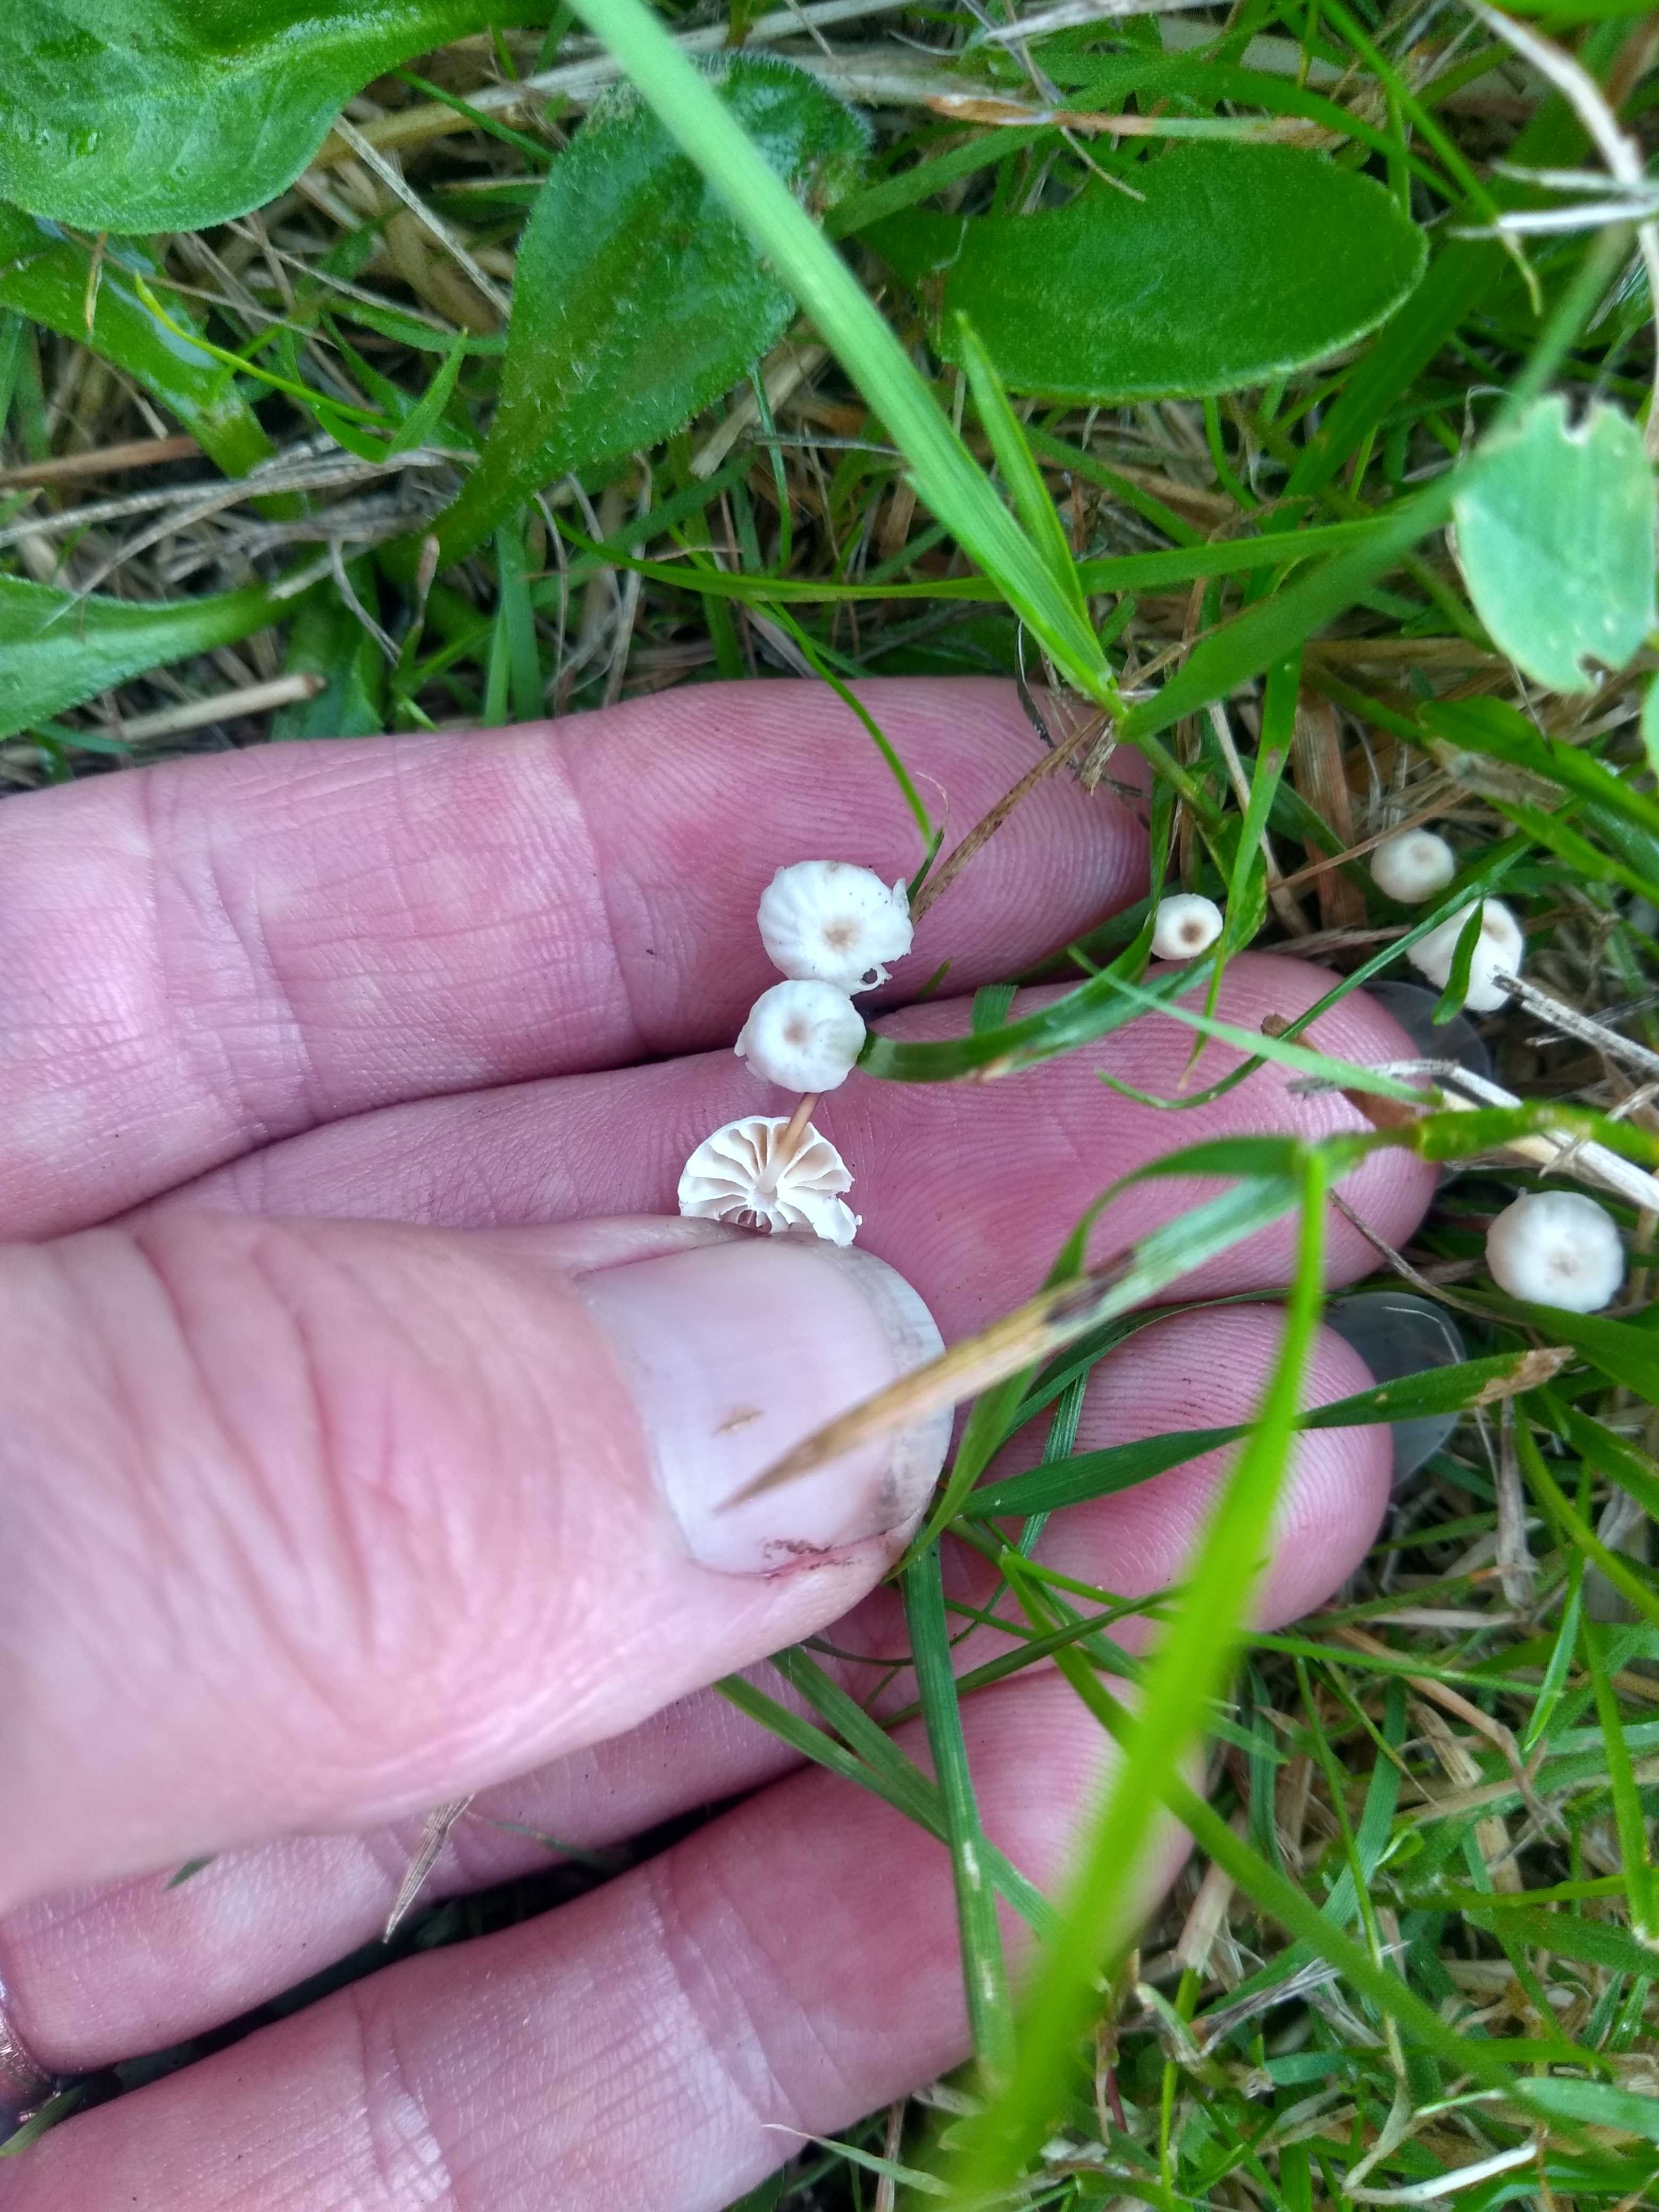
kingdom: Fungi
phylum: Basidiomycota
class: Agaricomycetes
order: Agaricales
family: Marasmiaceae
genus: Marasmius
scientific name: Marasmius rotula
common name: hjul-bruskhat
